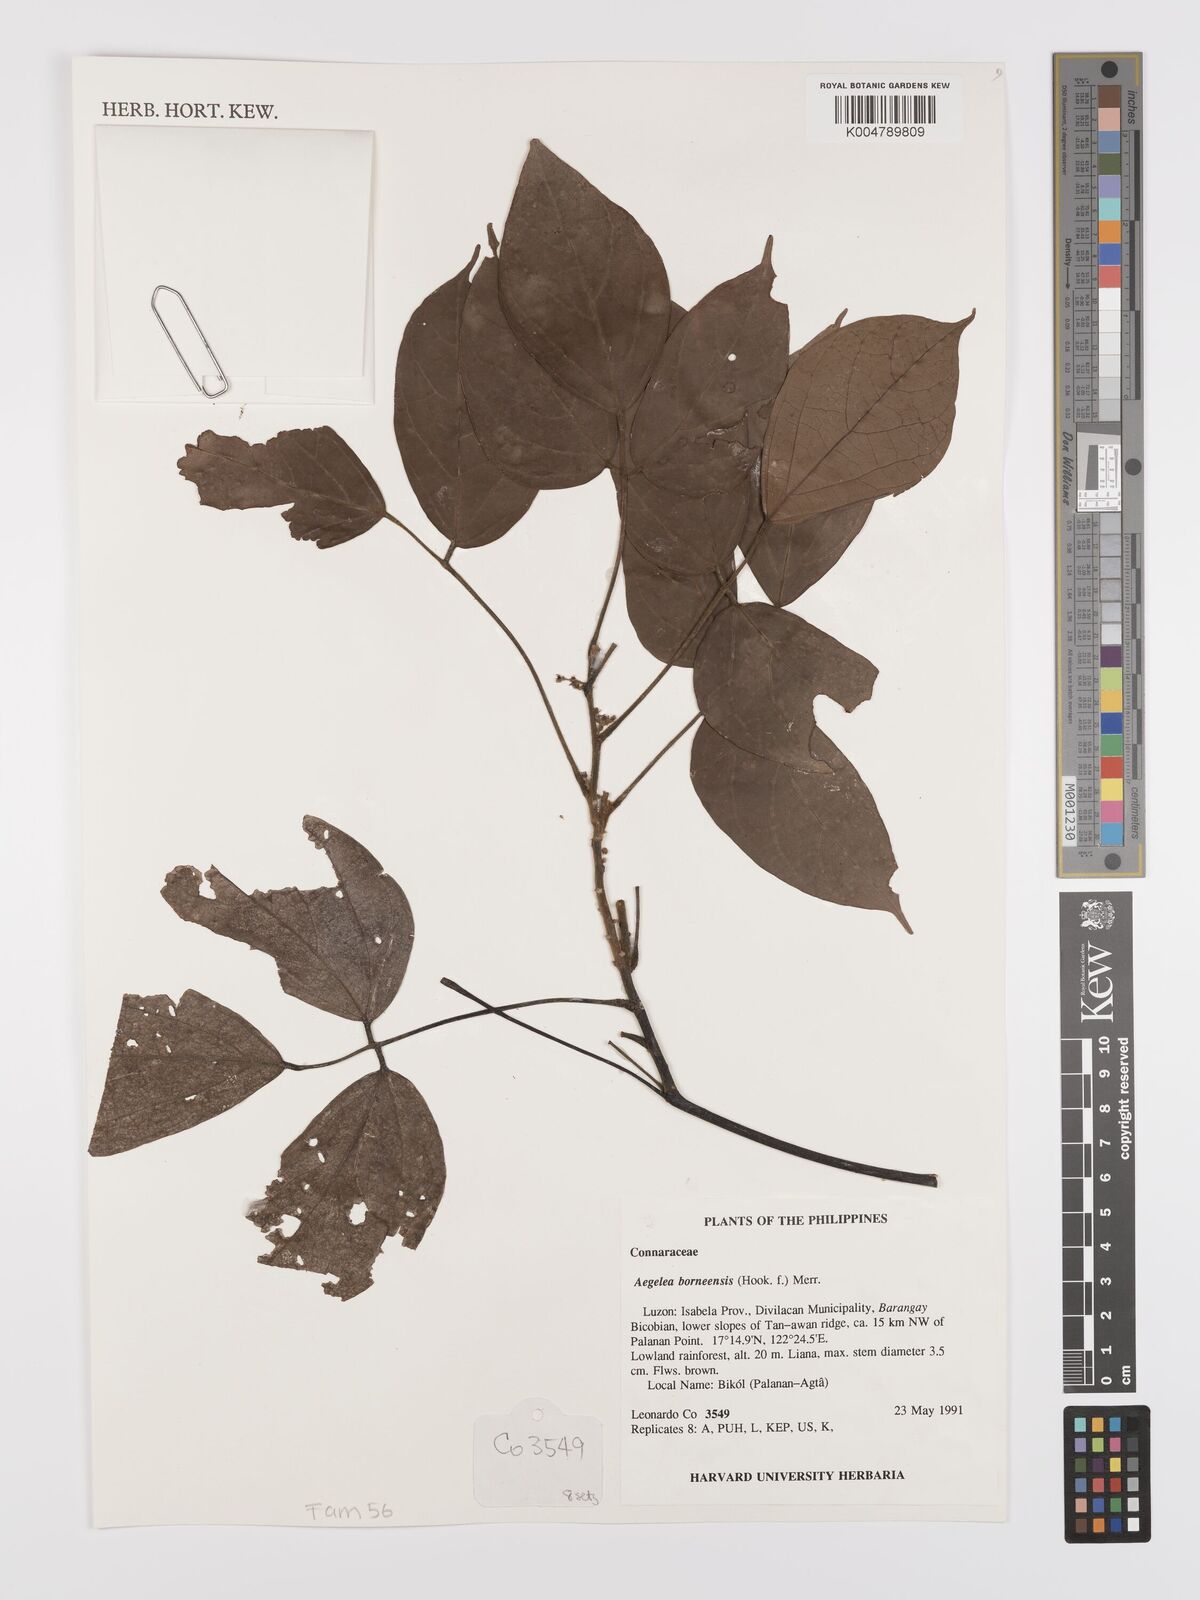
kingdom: Plantae
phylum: Tracheophyta
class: Magnoliopsida
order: Oxalidales
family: Connaraceae
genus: Agelaea
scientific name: Agelaea borneensis
